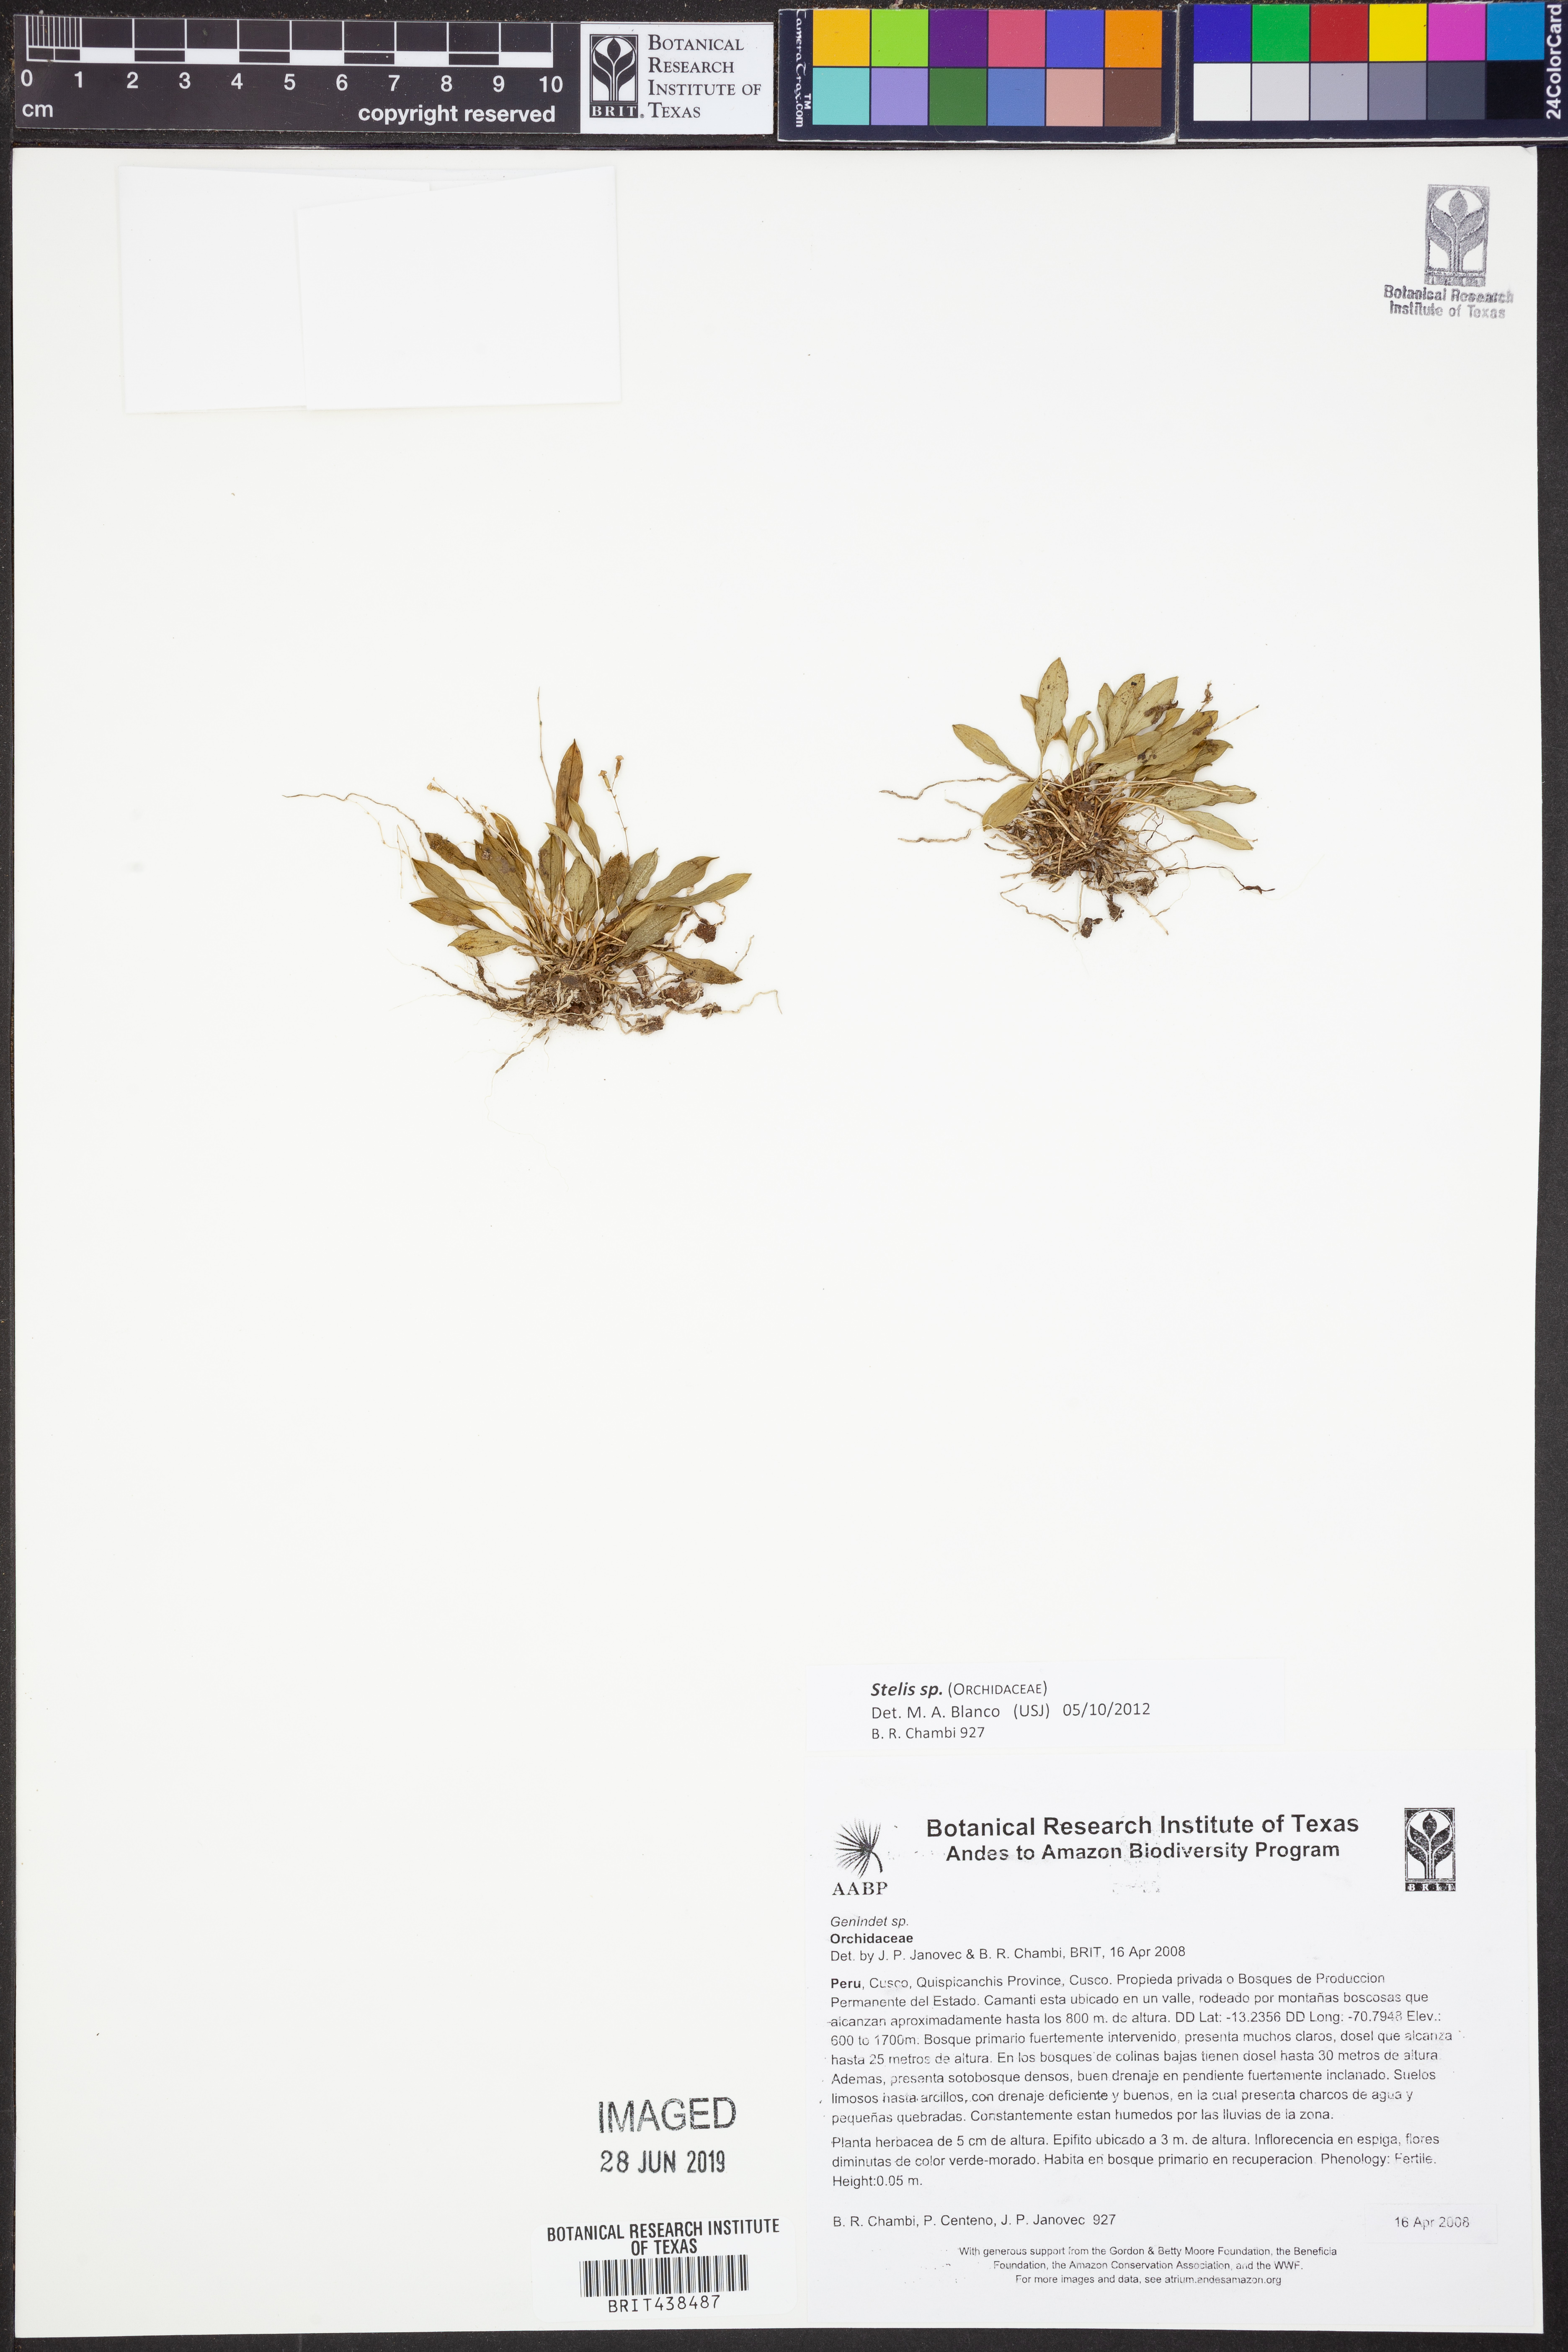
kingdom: Plantae
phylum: Tracheophyta
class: Liliopsida
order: Asparagales
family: Orchidaceae
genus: Stelis
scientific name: Stelis
